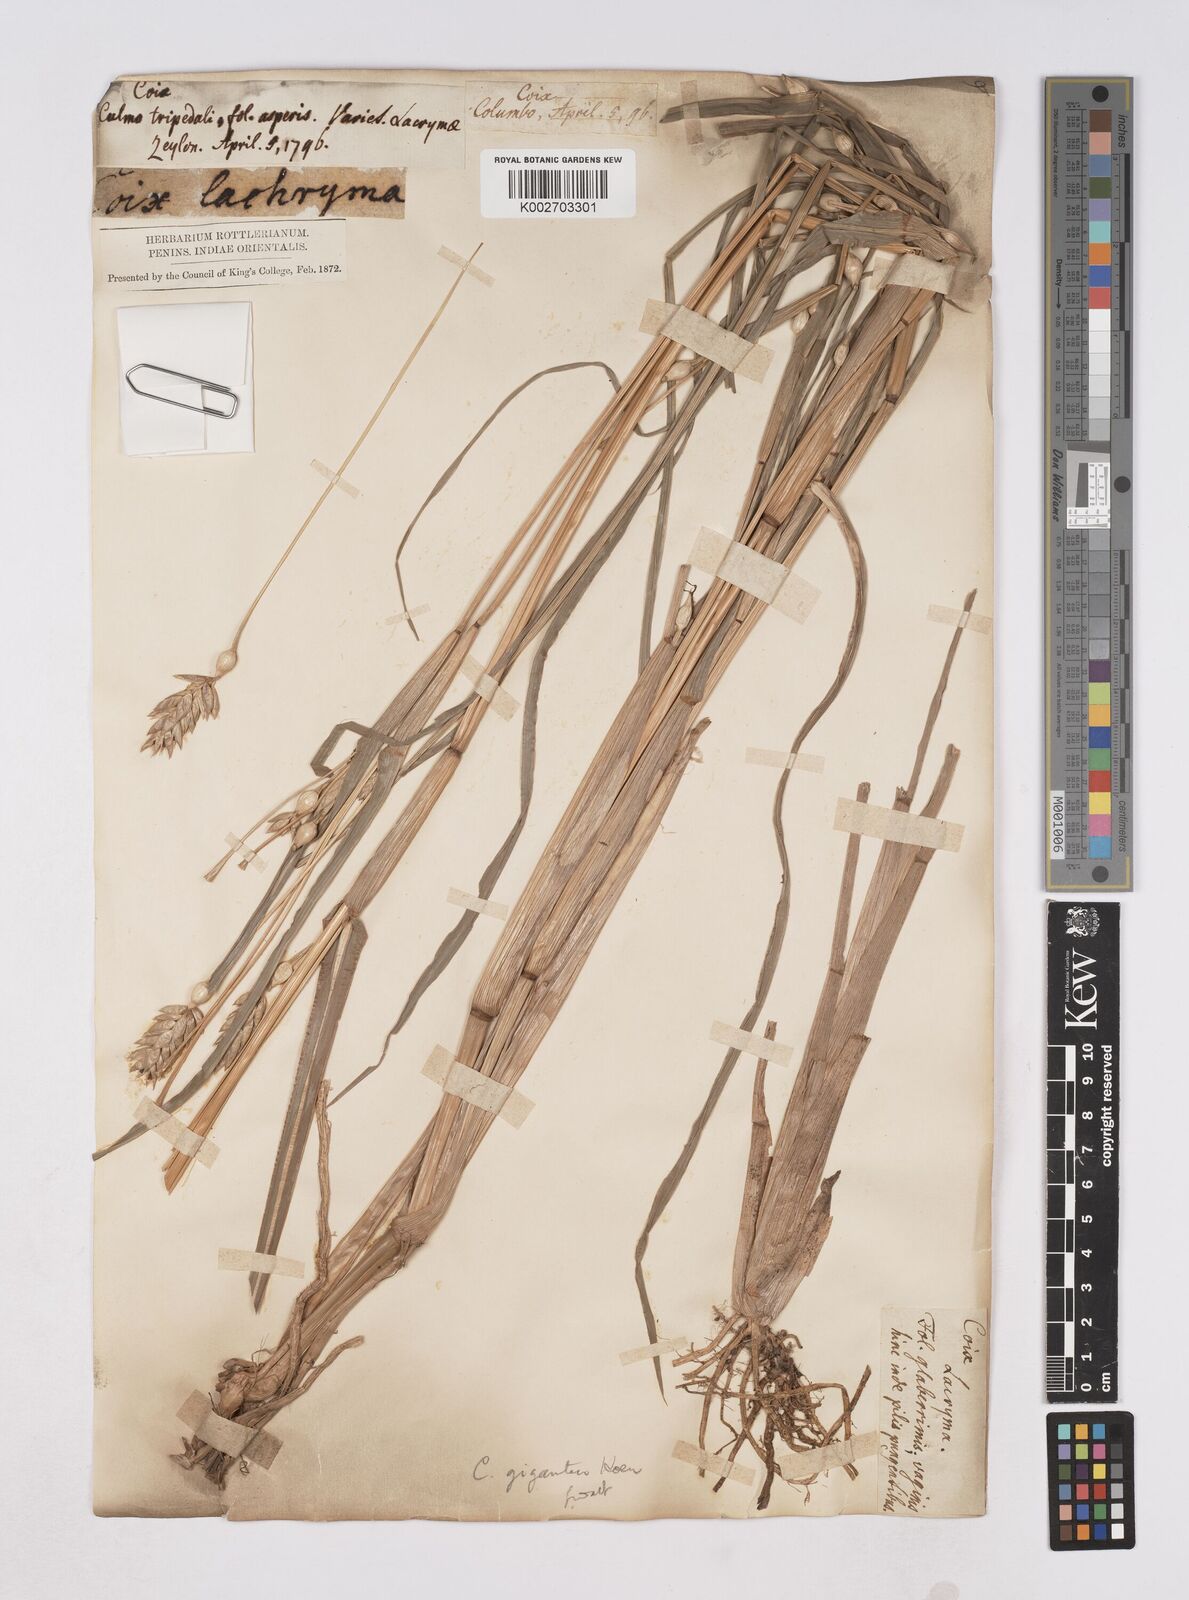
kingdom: Plantae
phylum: Tracheophyta
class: Liliopsida
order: Poales
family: Poaceae
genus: Polytoca
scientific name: Polytoca gigantea
